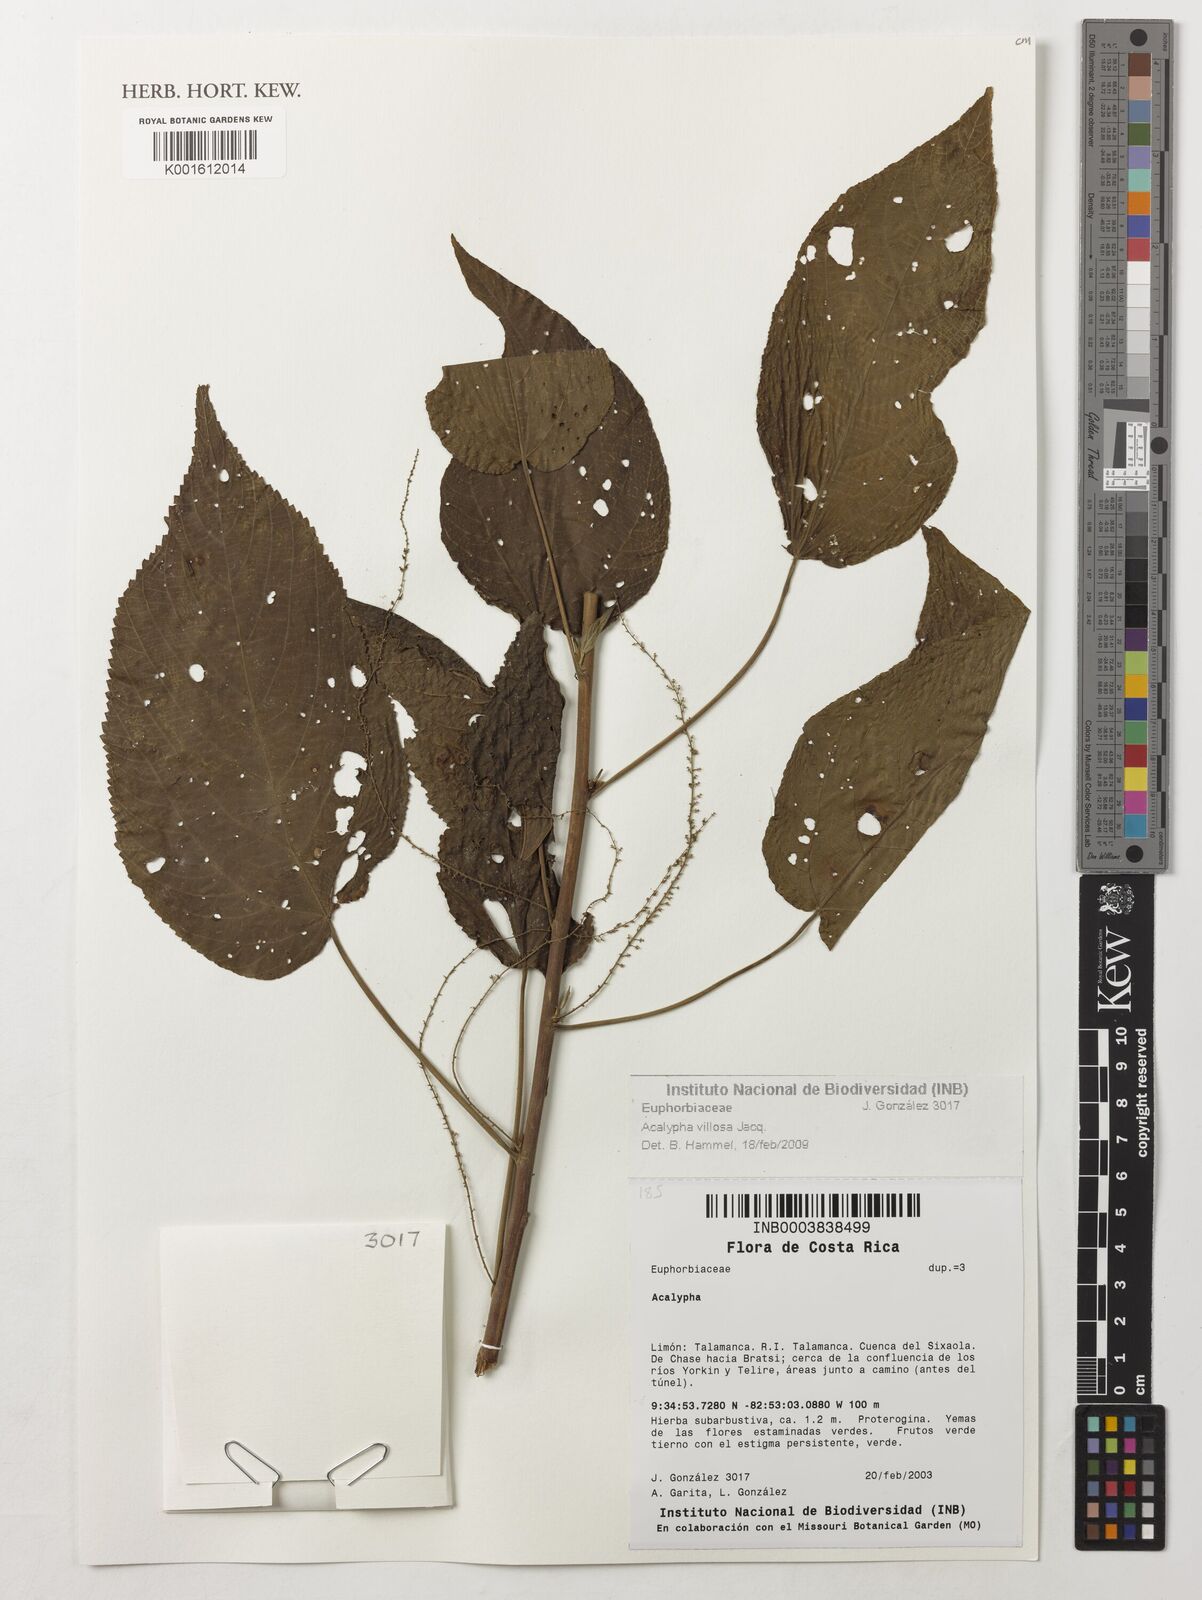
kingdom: Plantae
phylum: Tracheophyta
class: Magnoliopsida
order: Malpighiales
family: Euphorbiaceae
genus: Acalypha
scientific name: Acalypha villosa
